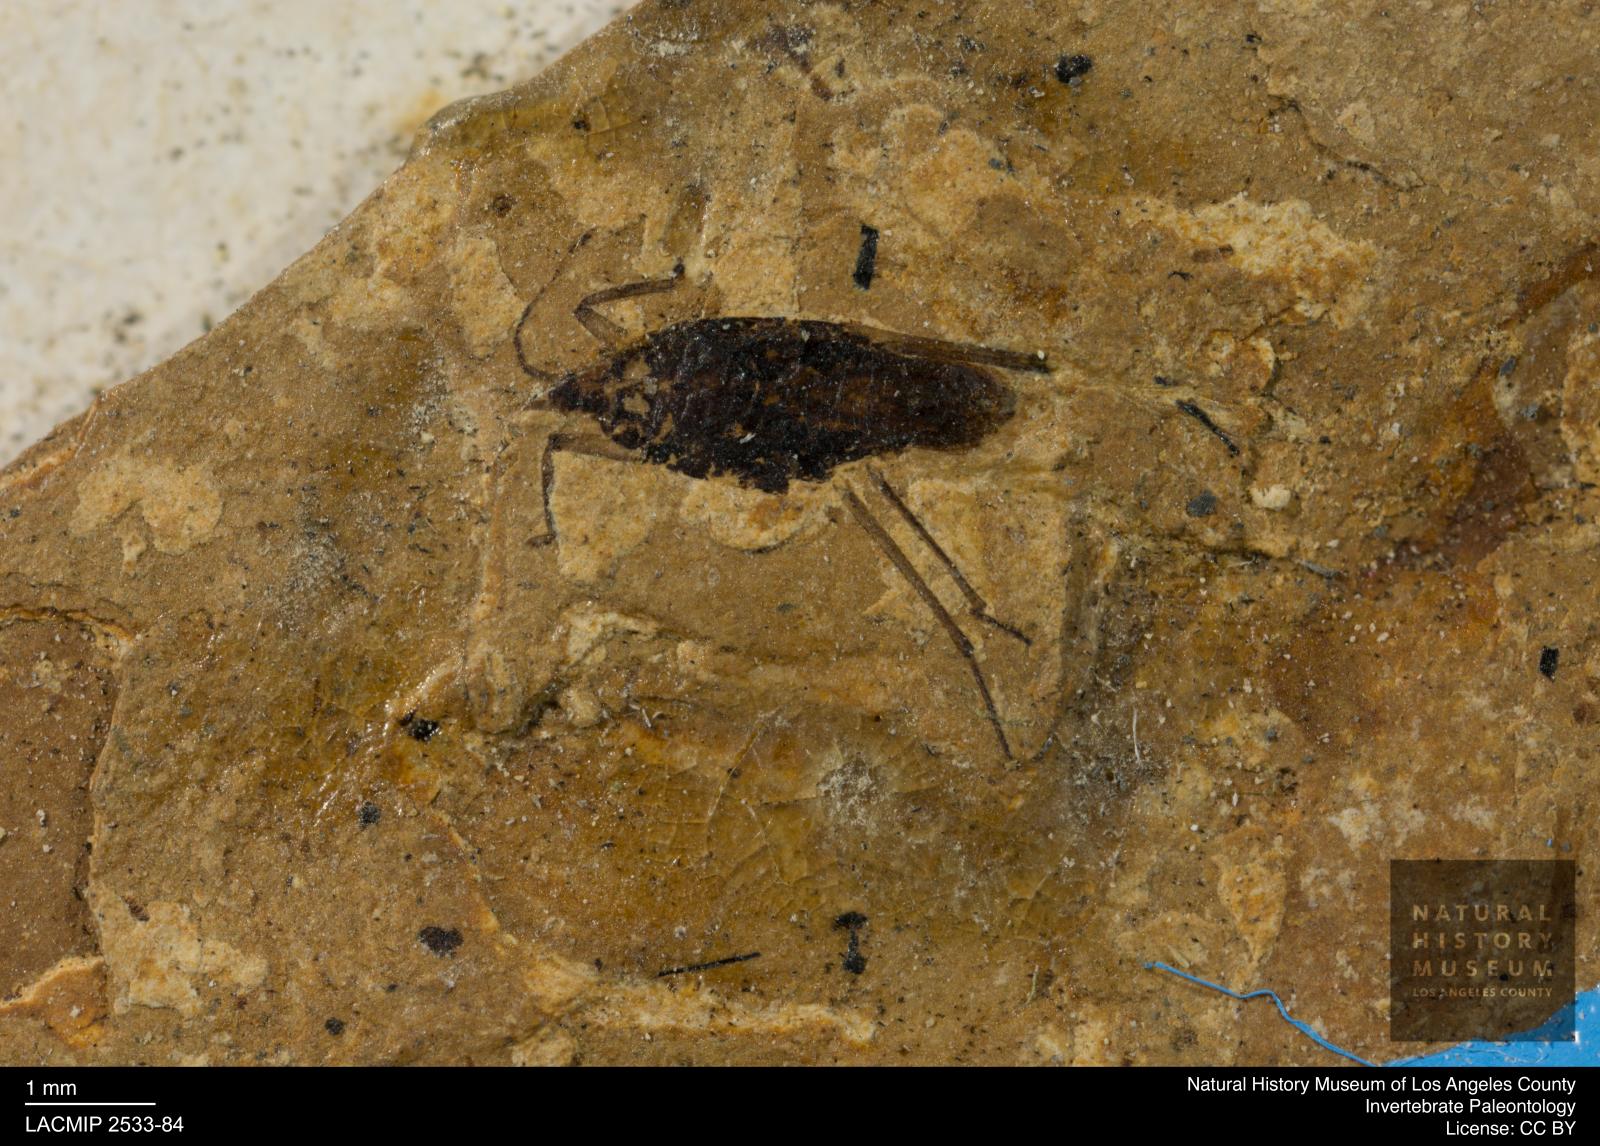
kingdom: Animalia
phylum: Arthropoda
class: Insecta
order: Hemiptera
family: Gerridae
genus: Gerris
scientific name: Gerris
